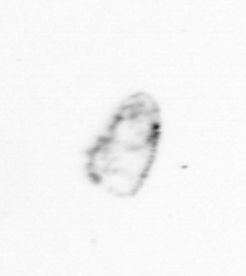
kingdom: Chromista
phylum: Ochrophyta
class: Bacillariophyceae
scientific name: Bacillariophyceae
